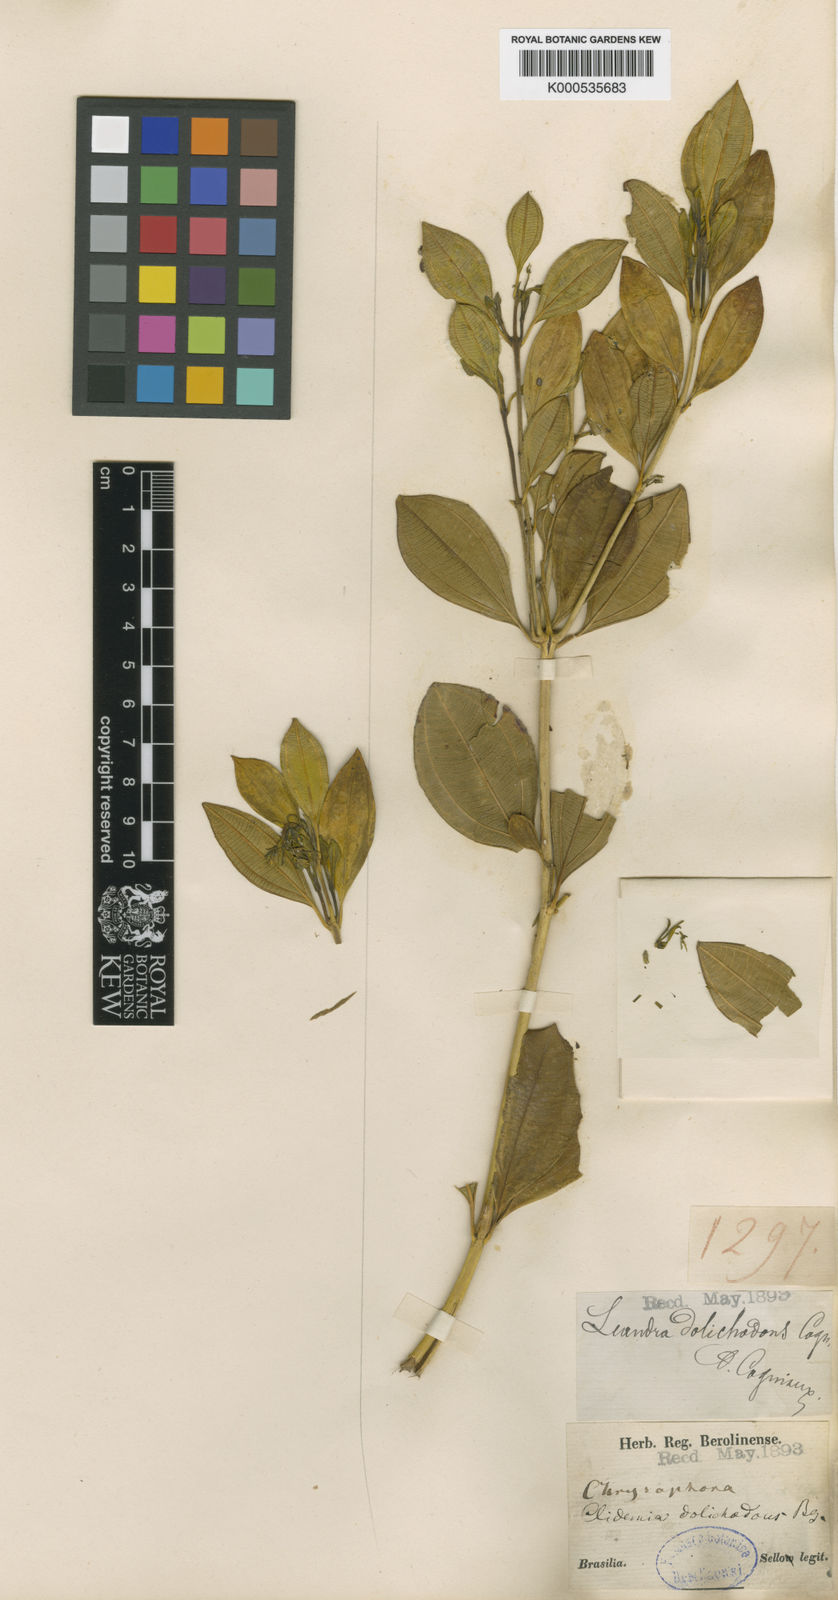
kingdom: Plantae
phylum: Tracheophyta
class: Magnoliopsida
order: Myrtales
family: Melastomataceae
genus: Miconia
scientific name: Miconia dolichodons
